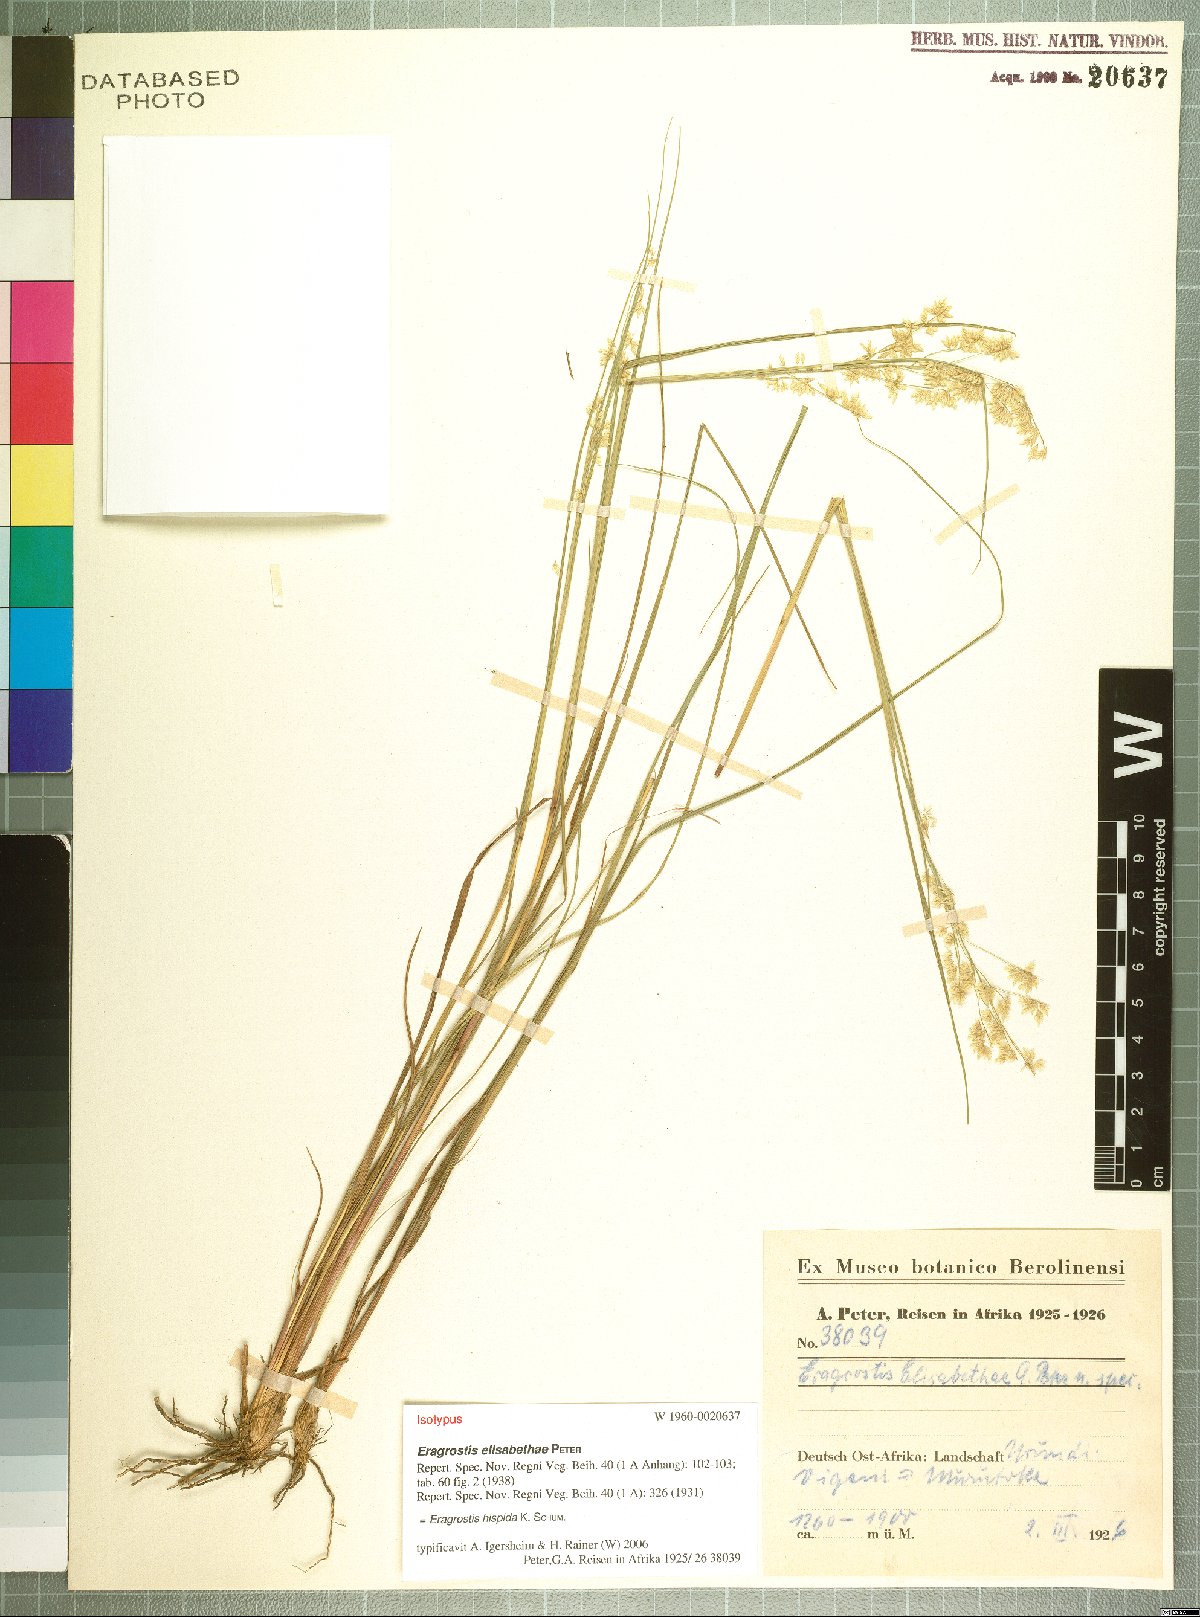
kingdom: Plantae
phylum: Tracheophyta
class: Liliopsida
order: Poales
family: Poaceae
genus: Eragrostis
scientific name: Eragrostis hispida
